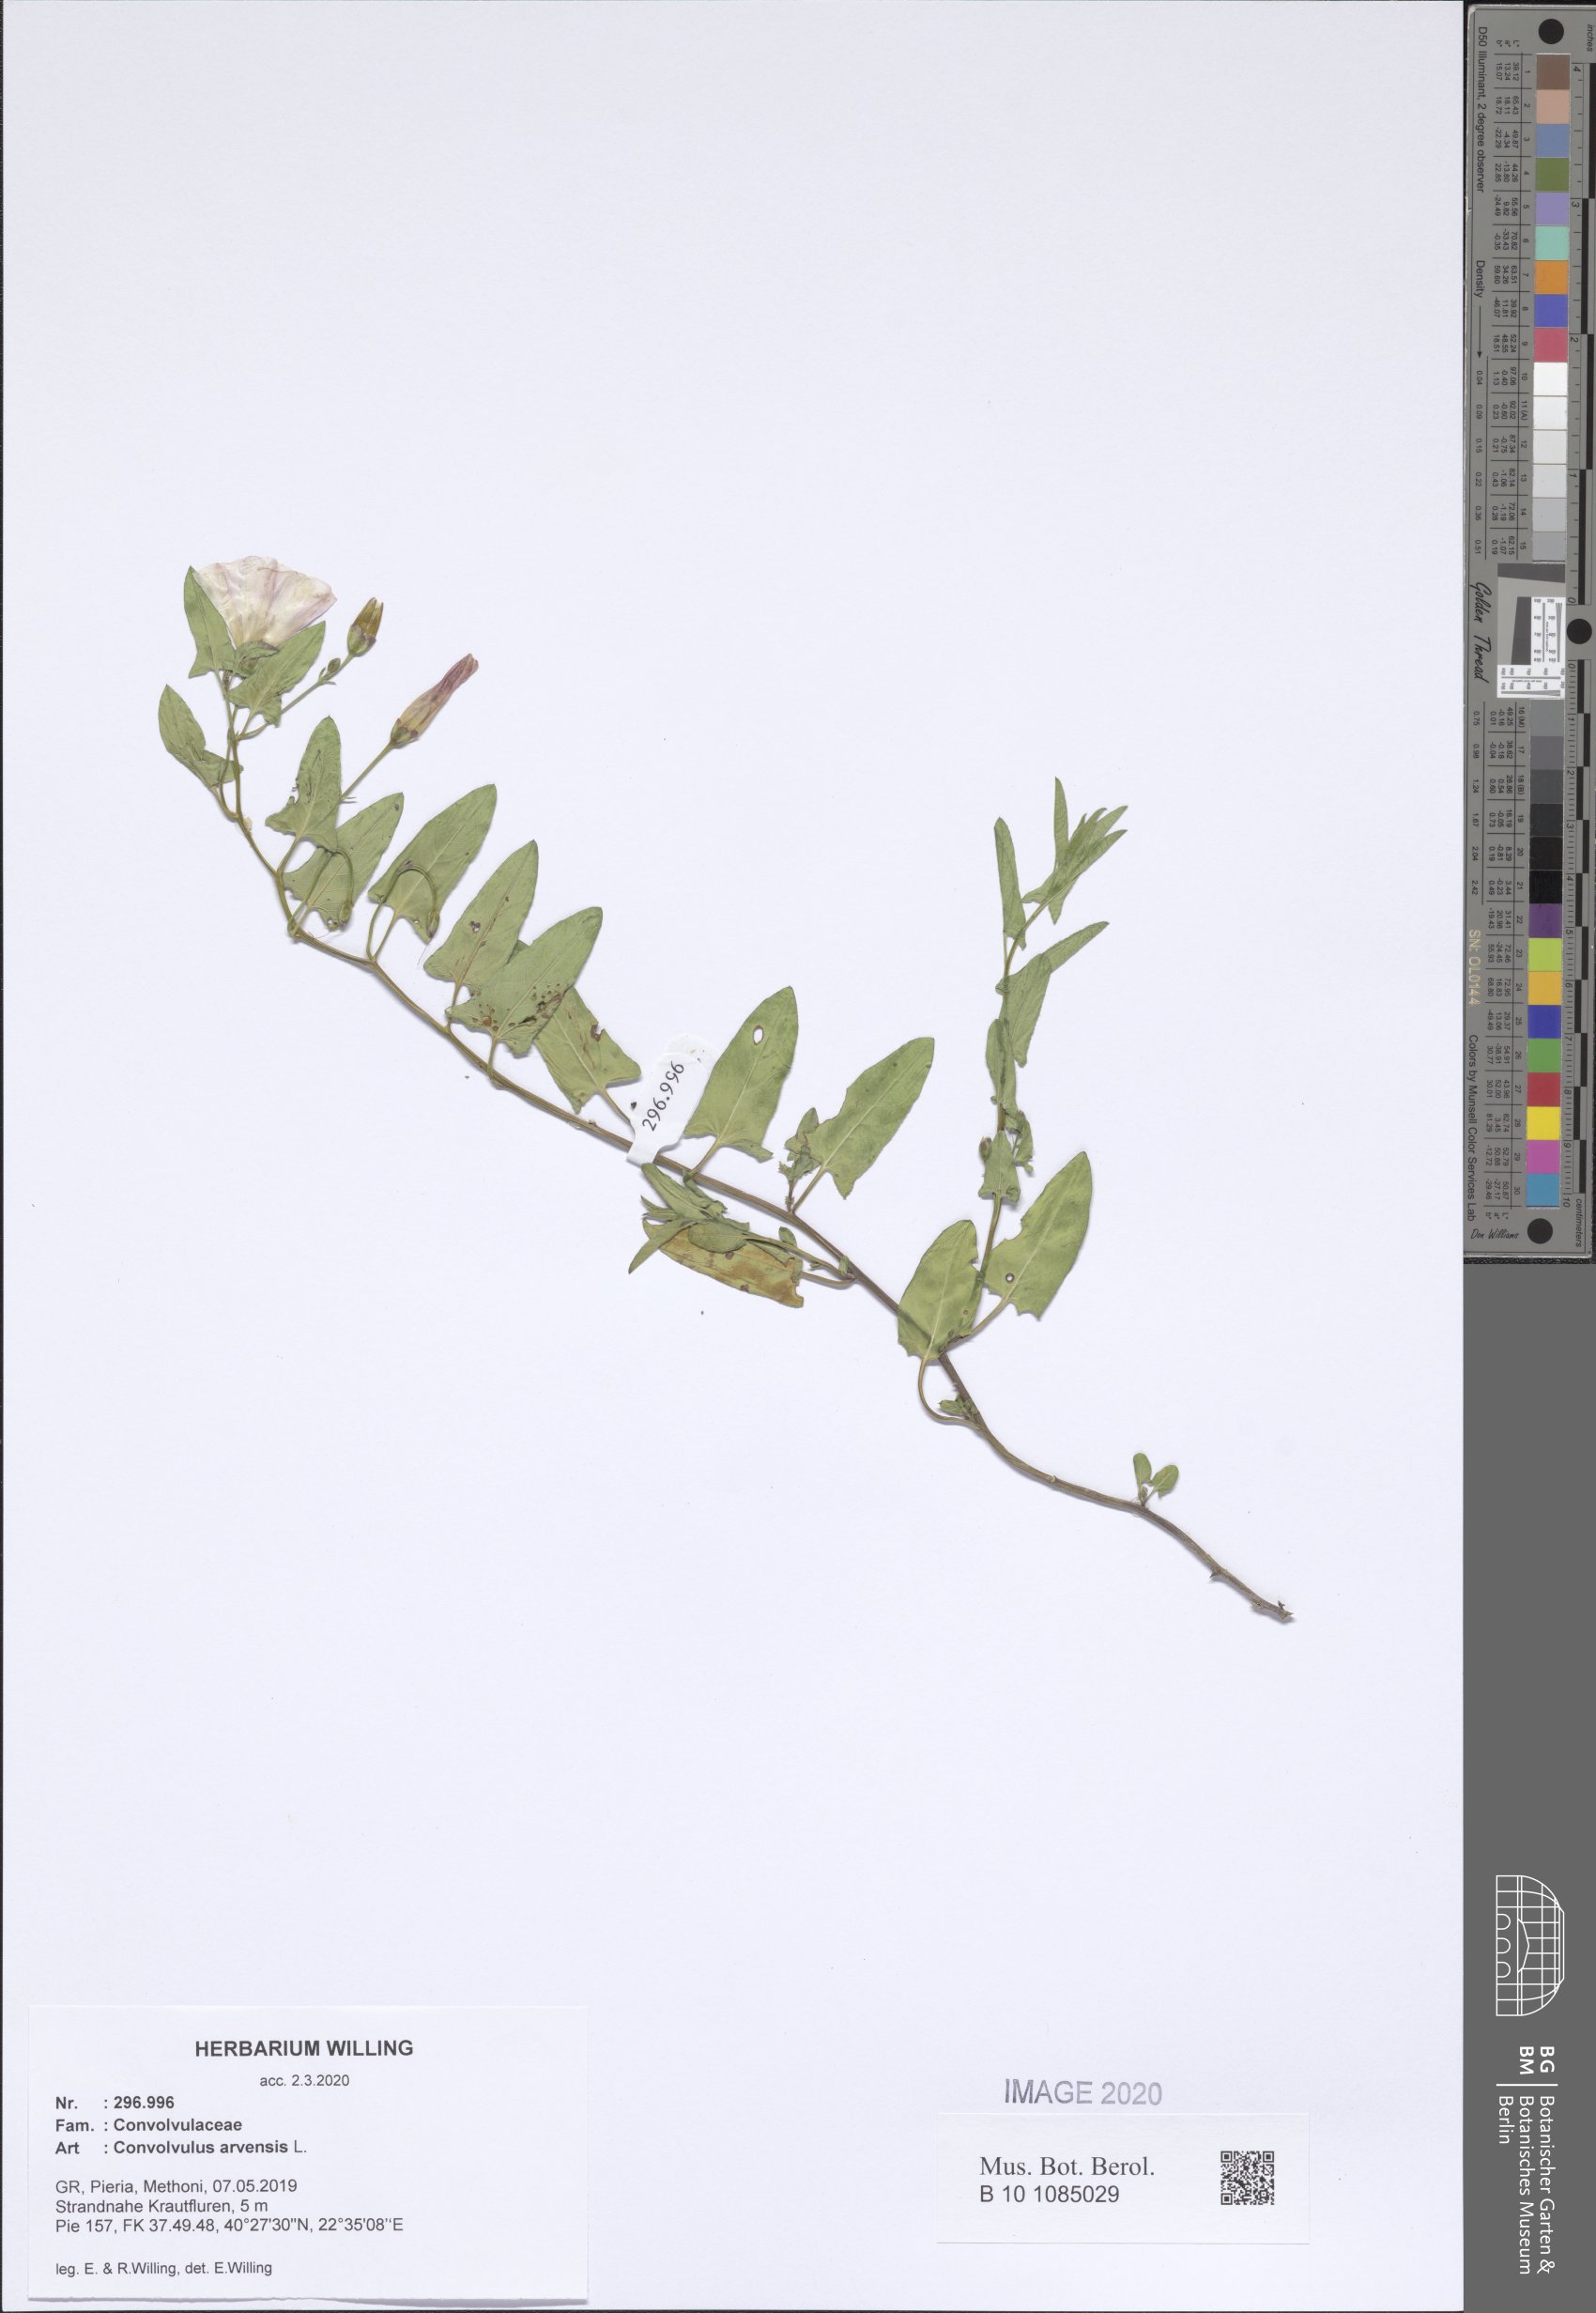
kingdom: Plantae
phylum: Tracheophyta
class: Magnoliopsida
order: Solanales
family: Convolvulaceae
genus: Convolvulus
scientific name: Convolvulus arvensis
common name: Field bindweed
